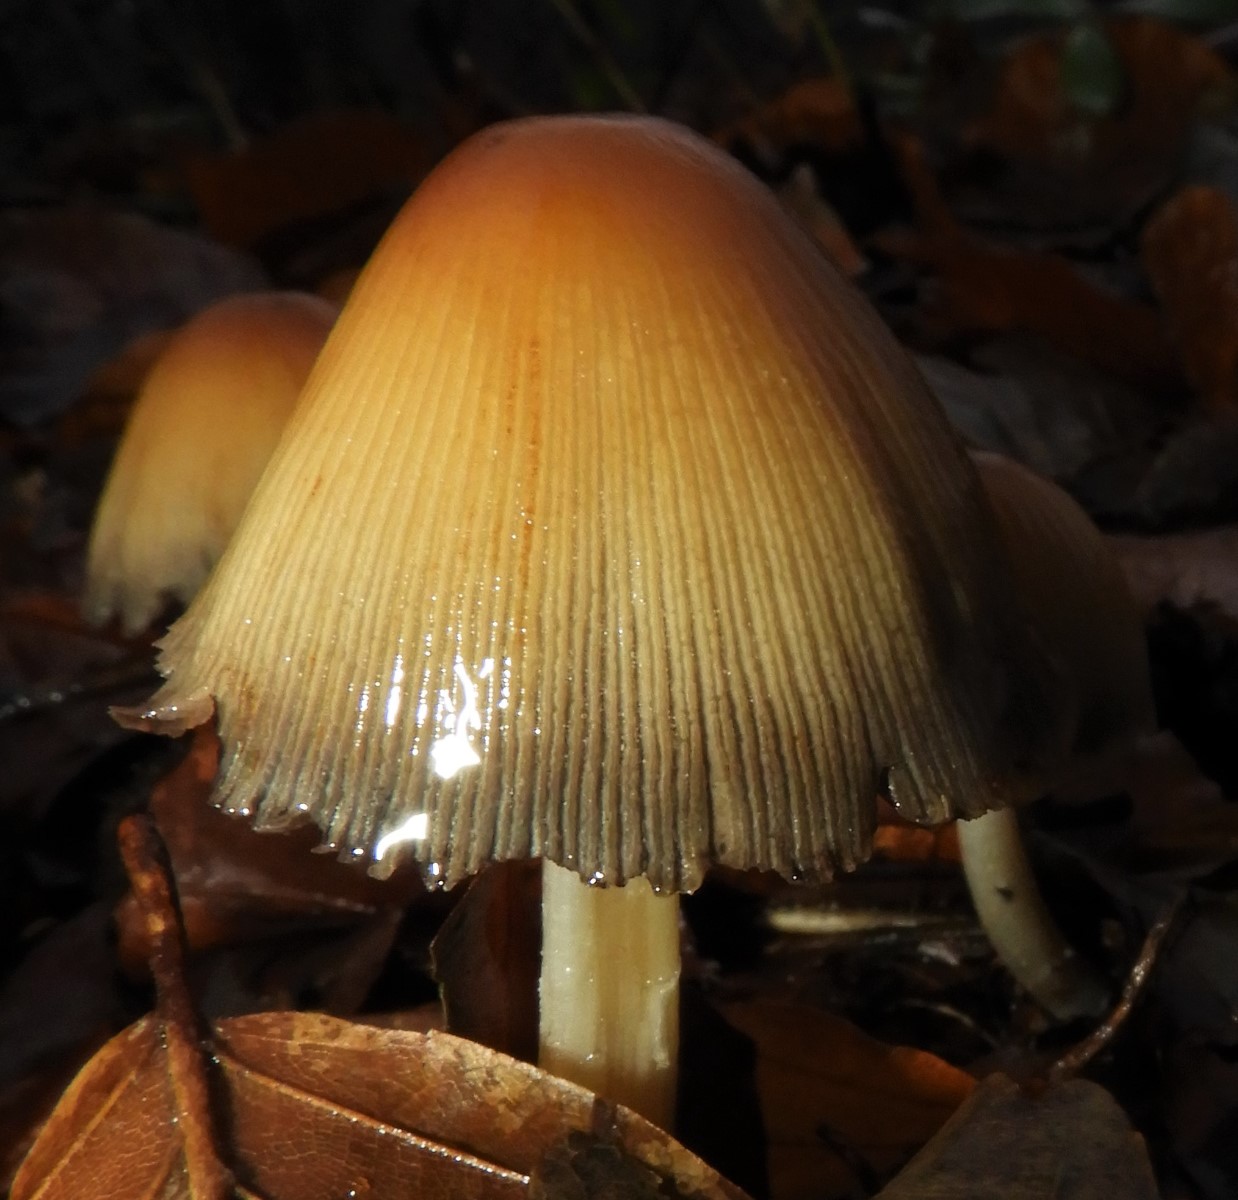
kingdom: Fungi
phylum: Basidiomycota
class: Agaricomycetes
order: Agaricales
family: Psathyrellaceae
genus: Coprinellus
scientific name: Coprinellus micaceus
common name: glimmer-blækhat
